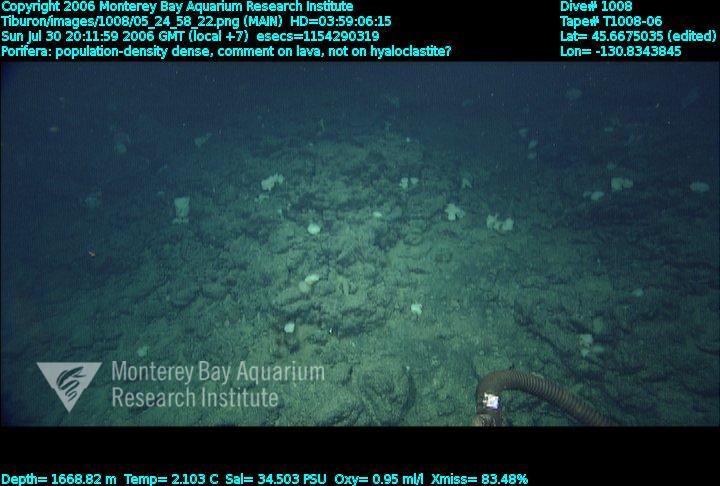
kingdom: Animalia
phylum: Porifera
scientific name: Porifera
